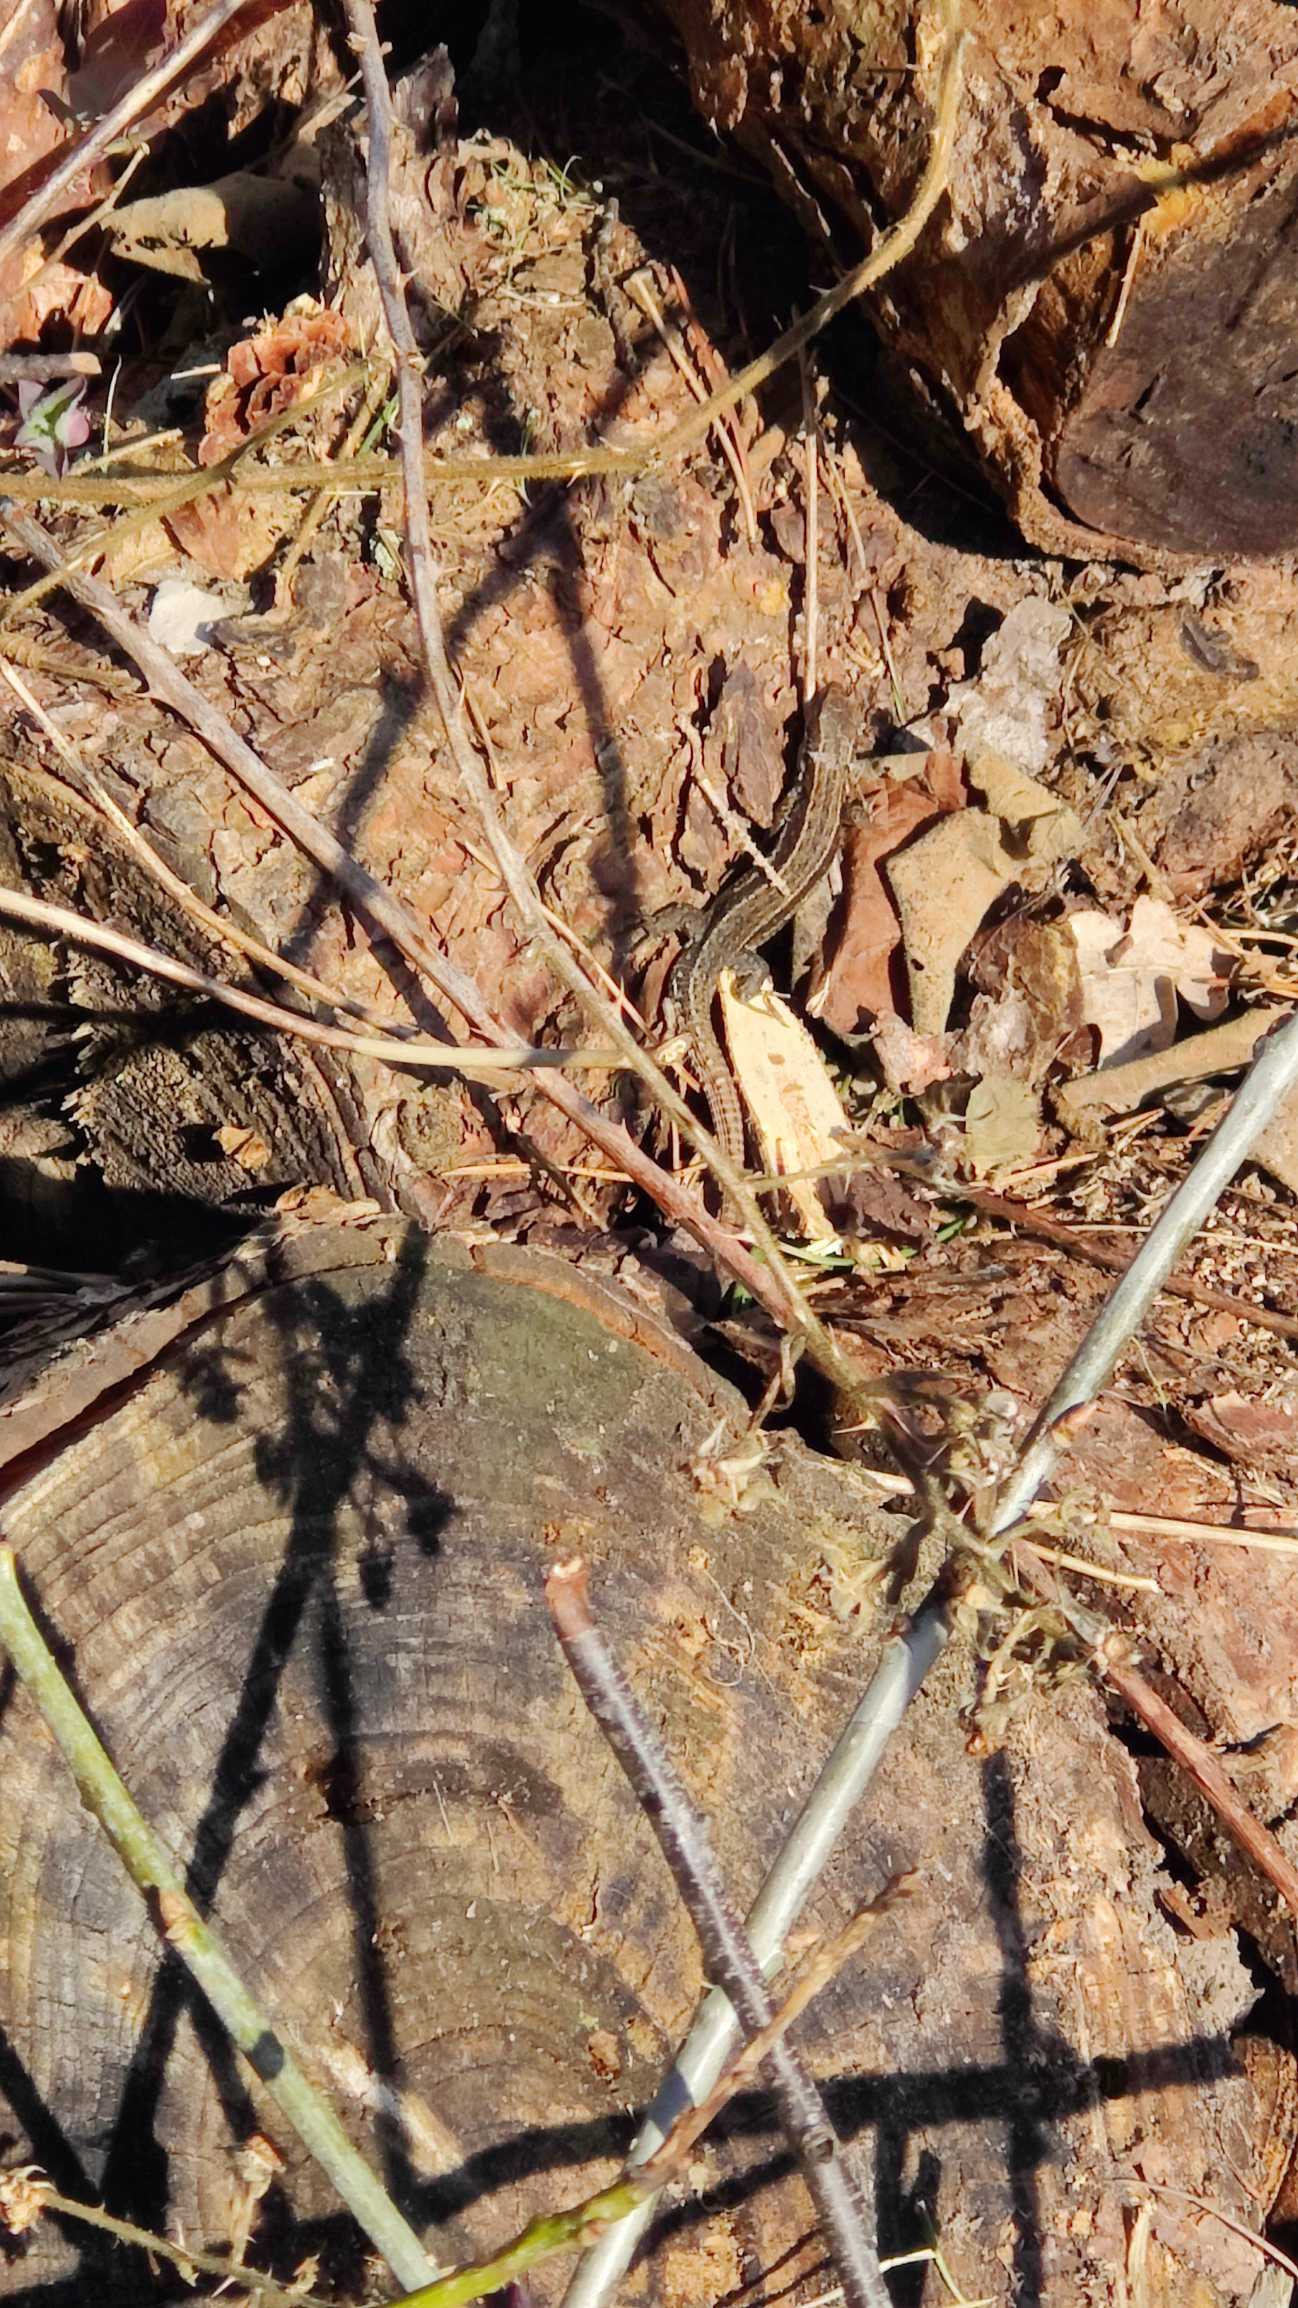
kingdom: Animalia
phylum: Chordata
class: Squamata
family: Lacertidae
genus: Zootoca
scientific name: Zootoca vivipara
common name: Skovfirben
